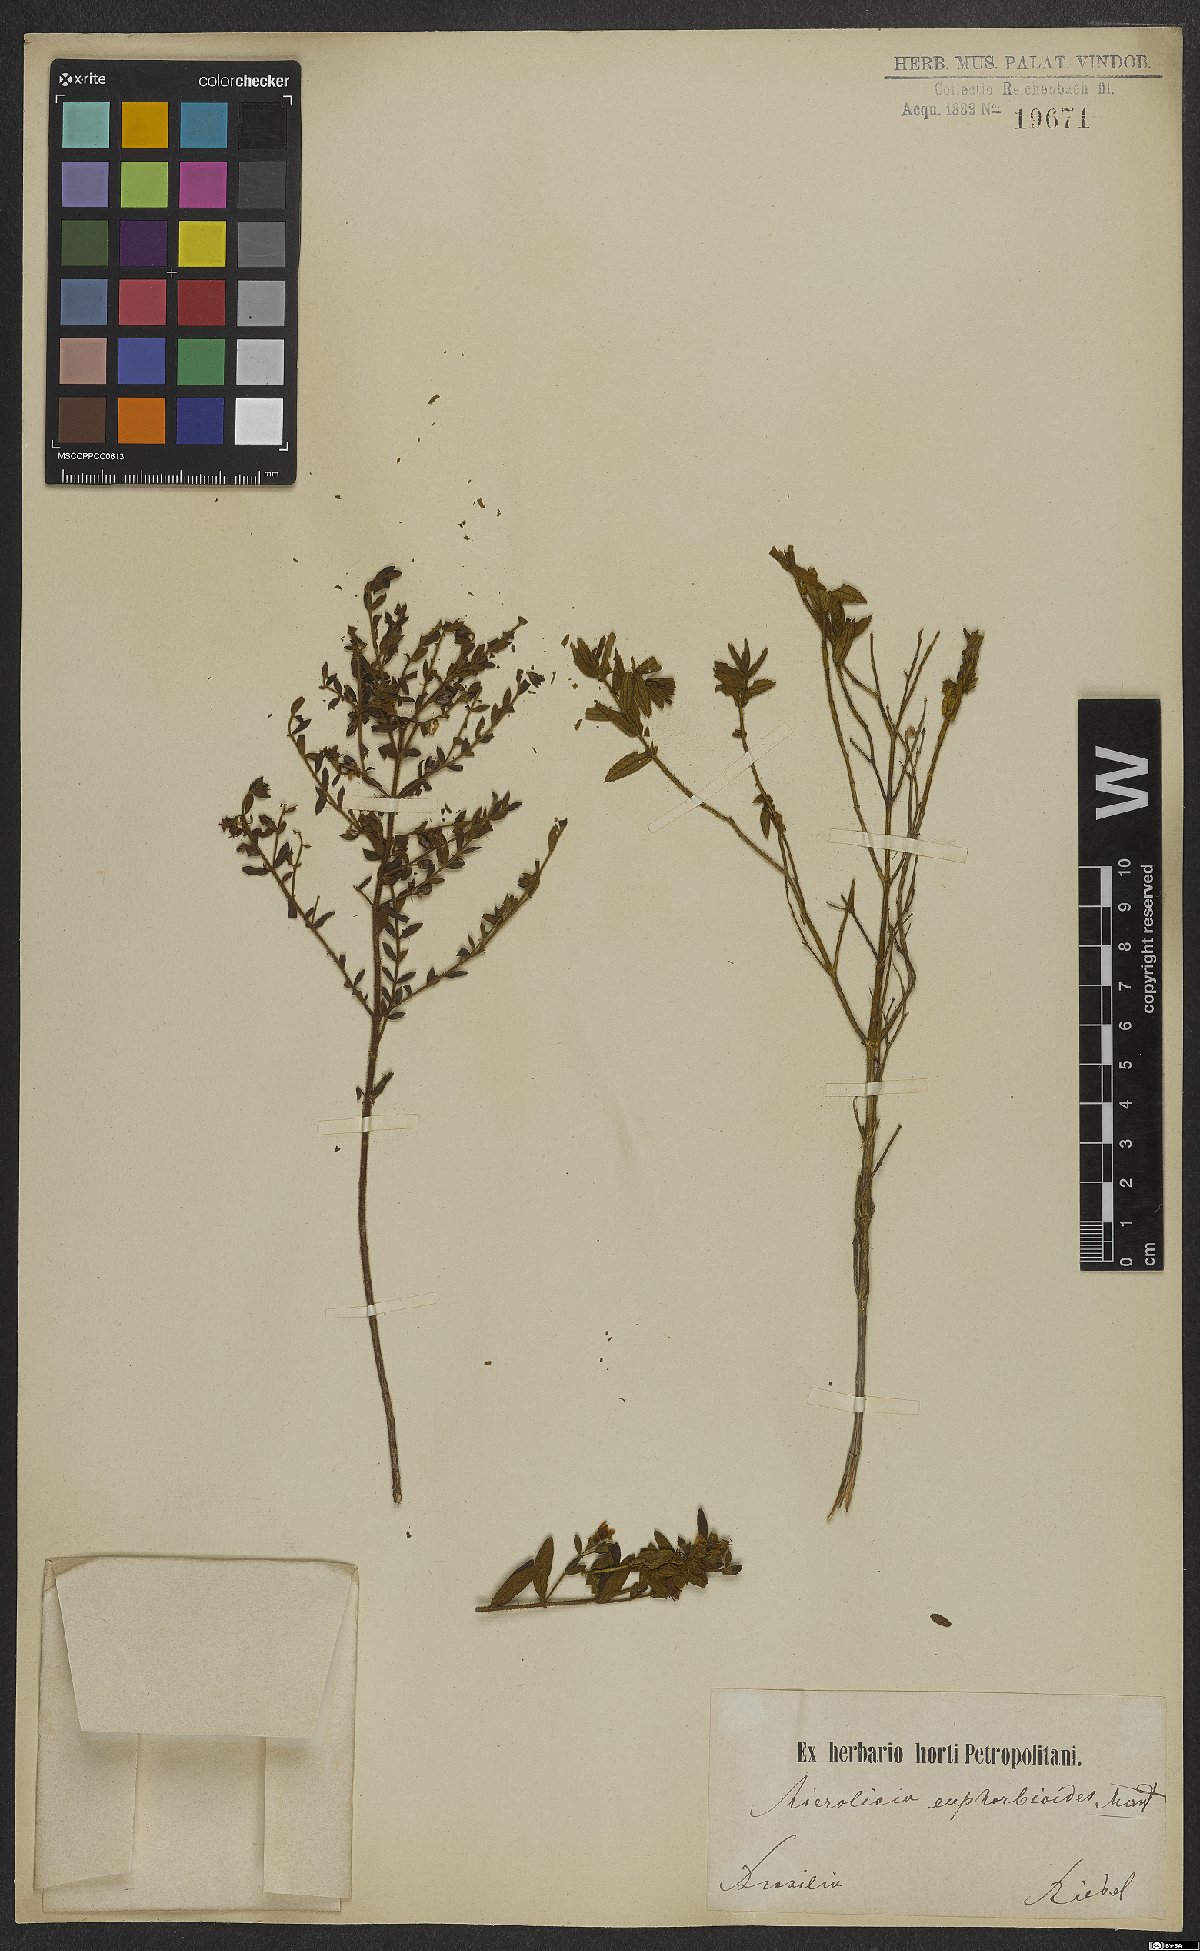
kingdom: Plantae
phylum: Tracheophyta
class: Magnoliopsida
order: Myrtales
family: Melastomataceae
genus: Microlicia
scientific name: Microlicia euphorbioides
